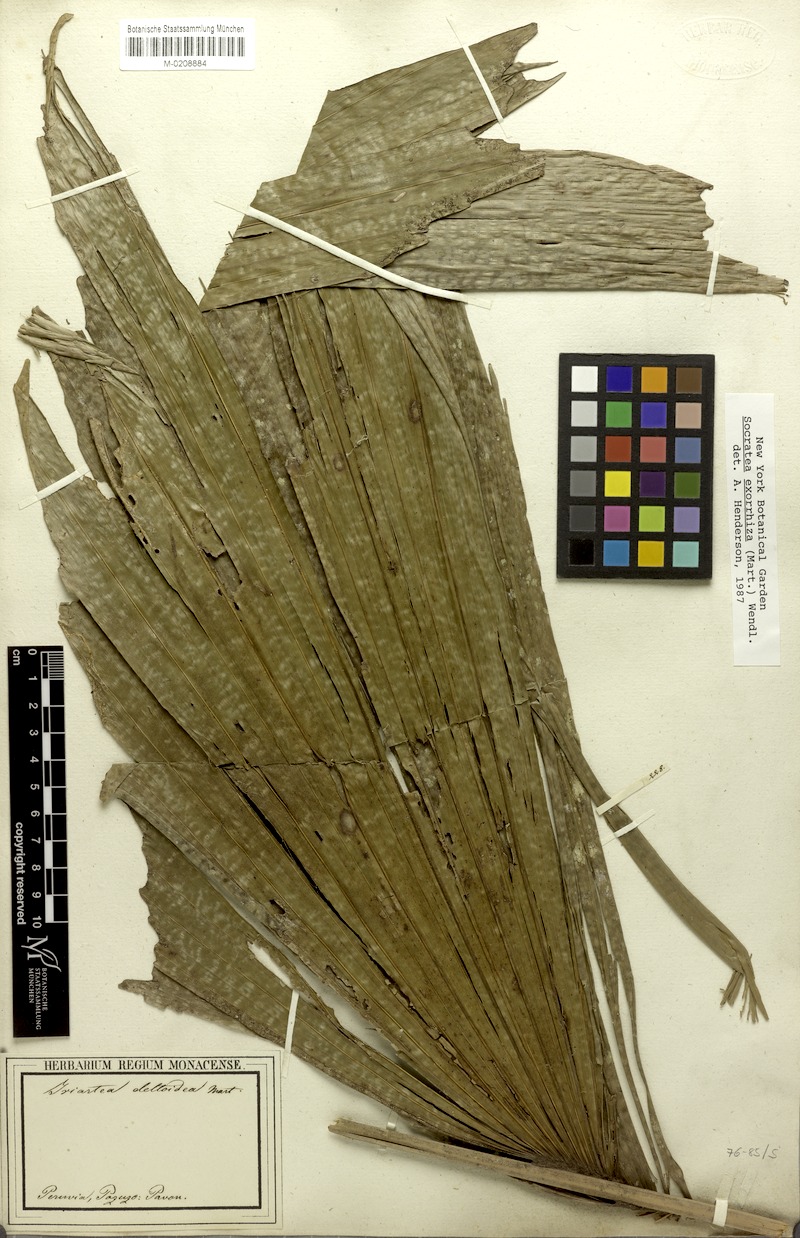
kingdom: Plantae
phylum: Tracheophyta
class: Liliopsida
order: Arecales
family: Arecaceae
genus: Socratea
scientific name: Socratea exorrhiza
